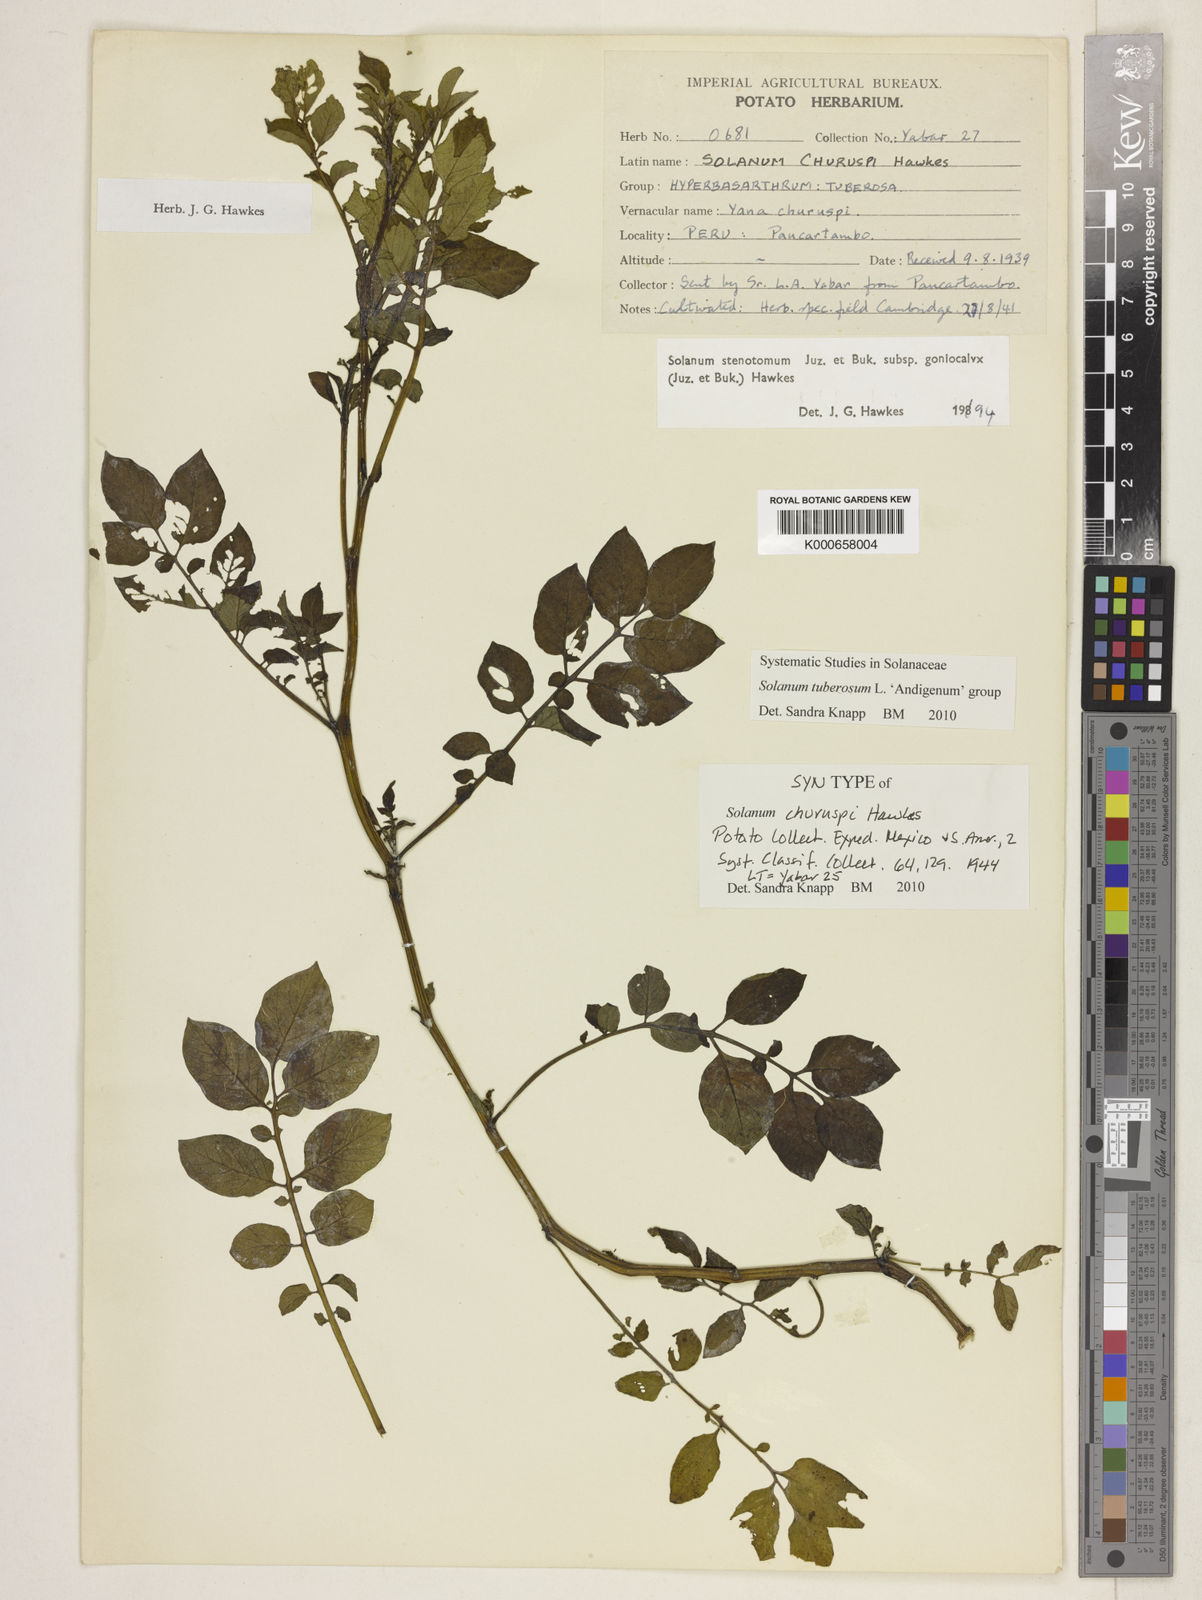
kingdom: Plantae
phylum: Tracheophyta
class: Magnoliopsida
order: Solanales
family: Solanaceae
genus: Solanum
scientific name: Solanum tuberosum
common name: Potato
